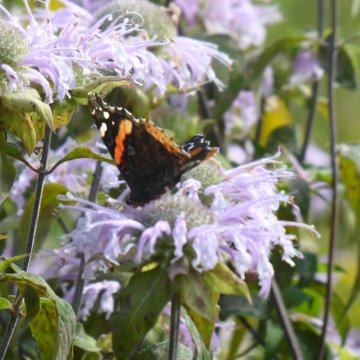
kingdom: Animalia
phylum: Arthropoda
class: Insecta
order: Lepidoptera
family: Nymphalidae
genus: Vanessa
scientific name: Vanessa atalanta
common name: Red Admiral
